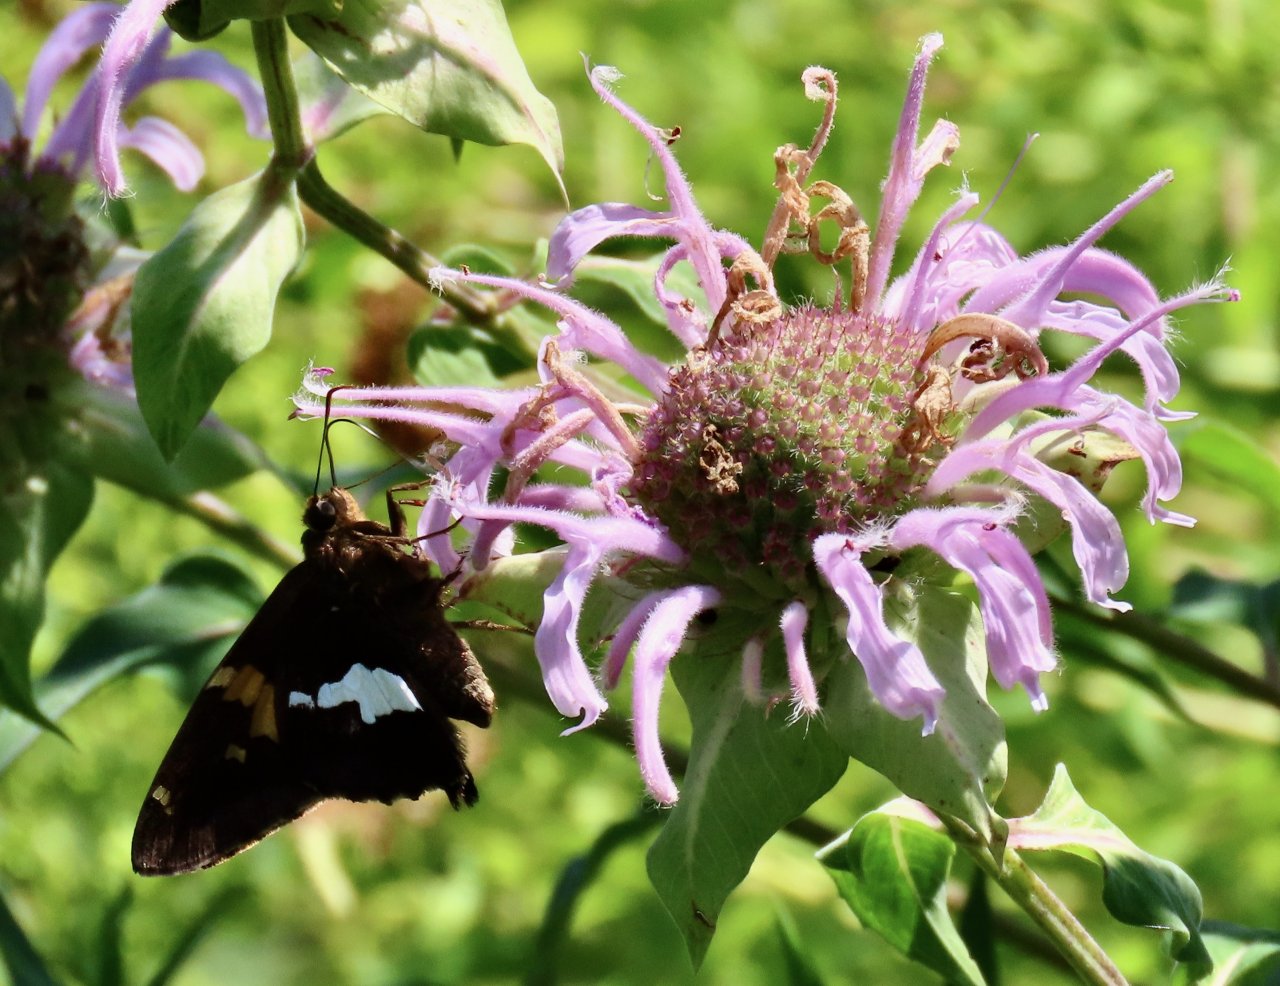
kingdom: Animalia
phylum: Arthropoda
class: Insecta
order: Lepidoptera
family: Hesperiidae
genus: Epargyreus
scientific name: Epargyreus clarus
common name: Silver-spotted Skipper
